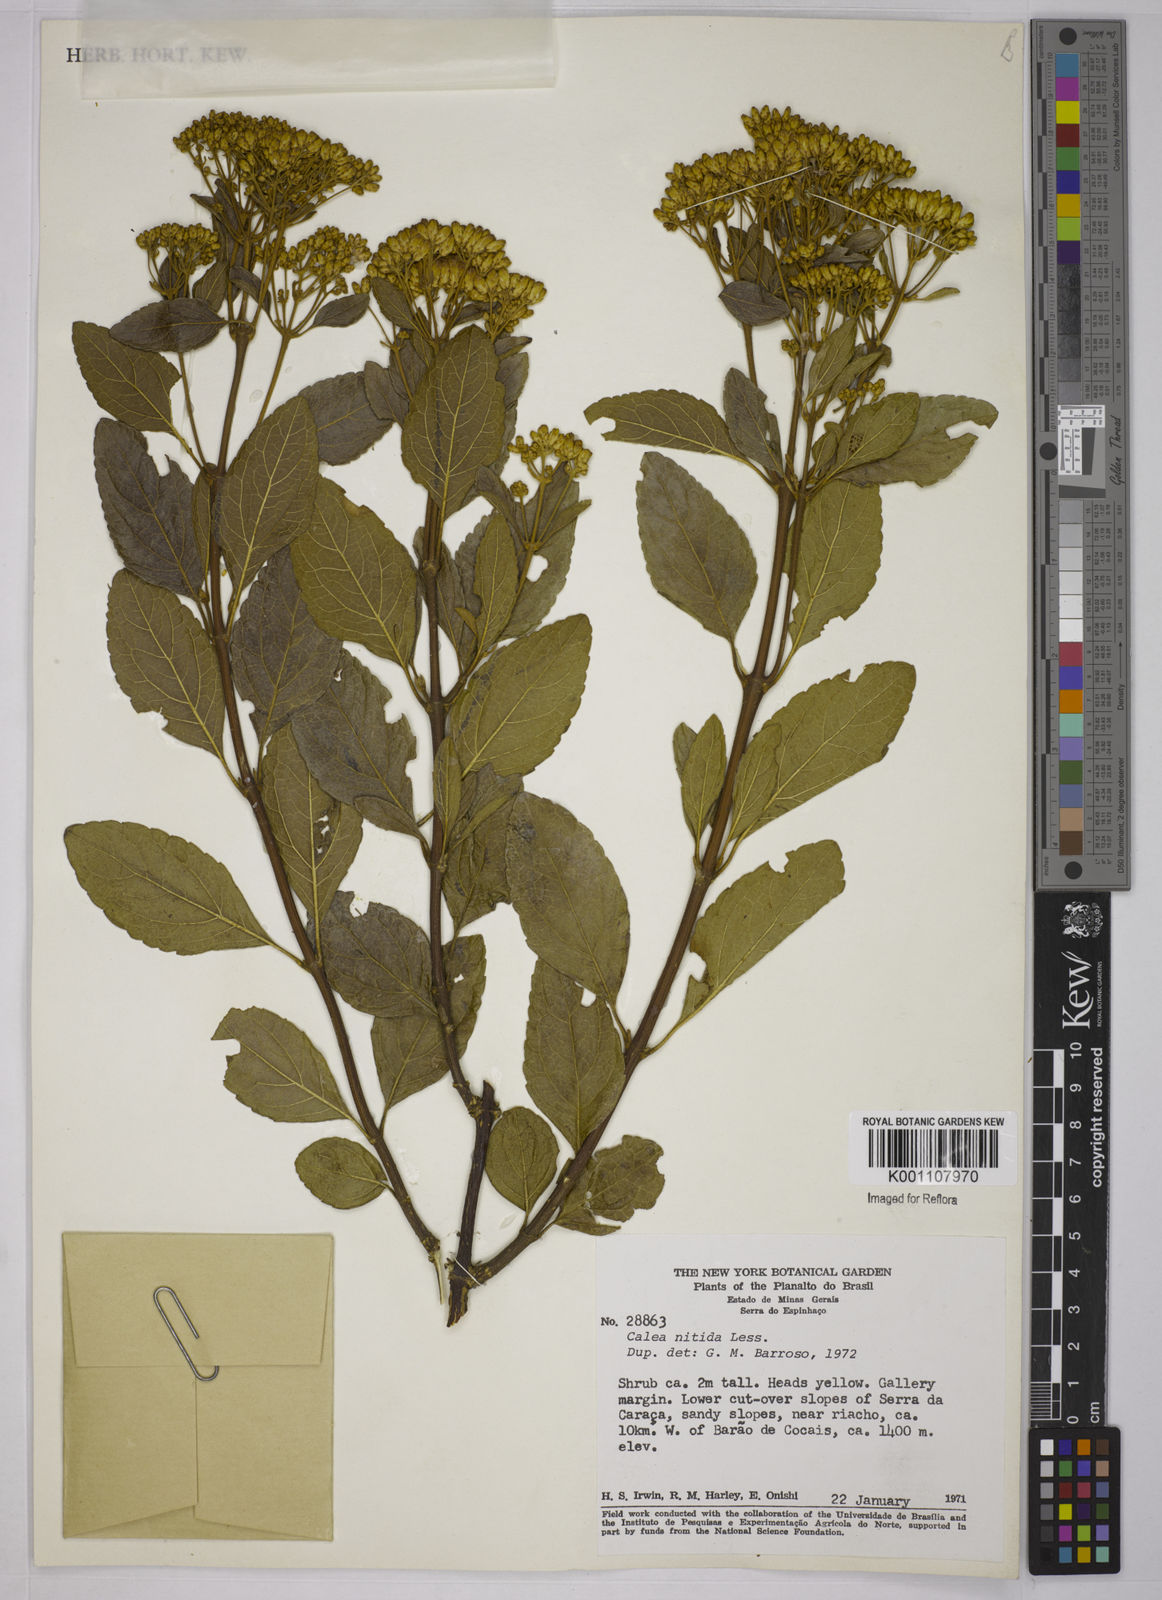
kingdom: Plantae
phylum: Tracheophyta
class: Magnoliopsida
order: Asterales
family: Asteraceae
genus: Calea
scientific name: Calea nitida
